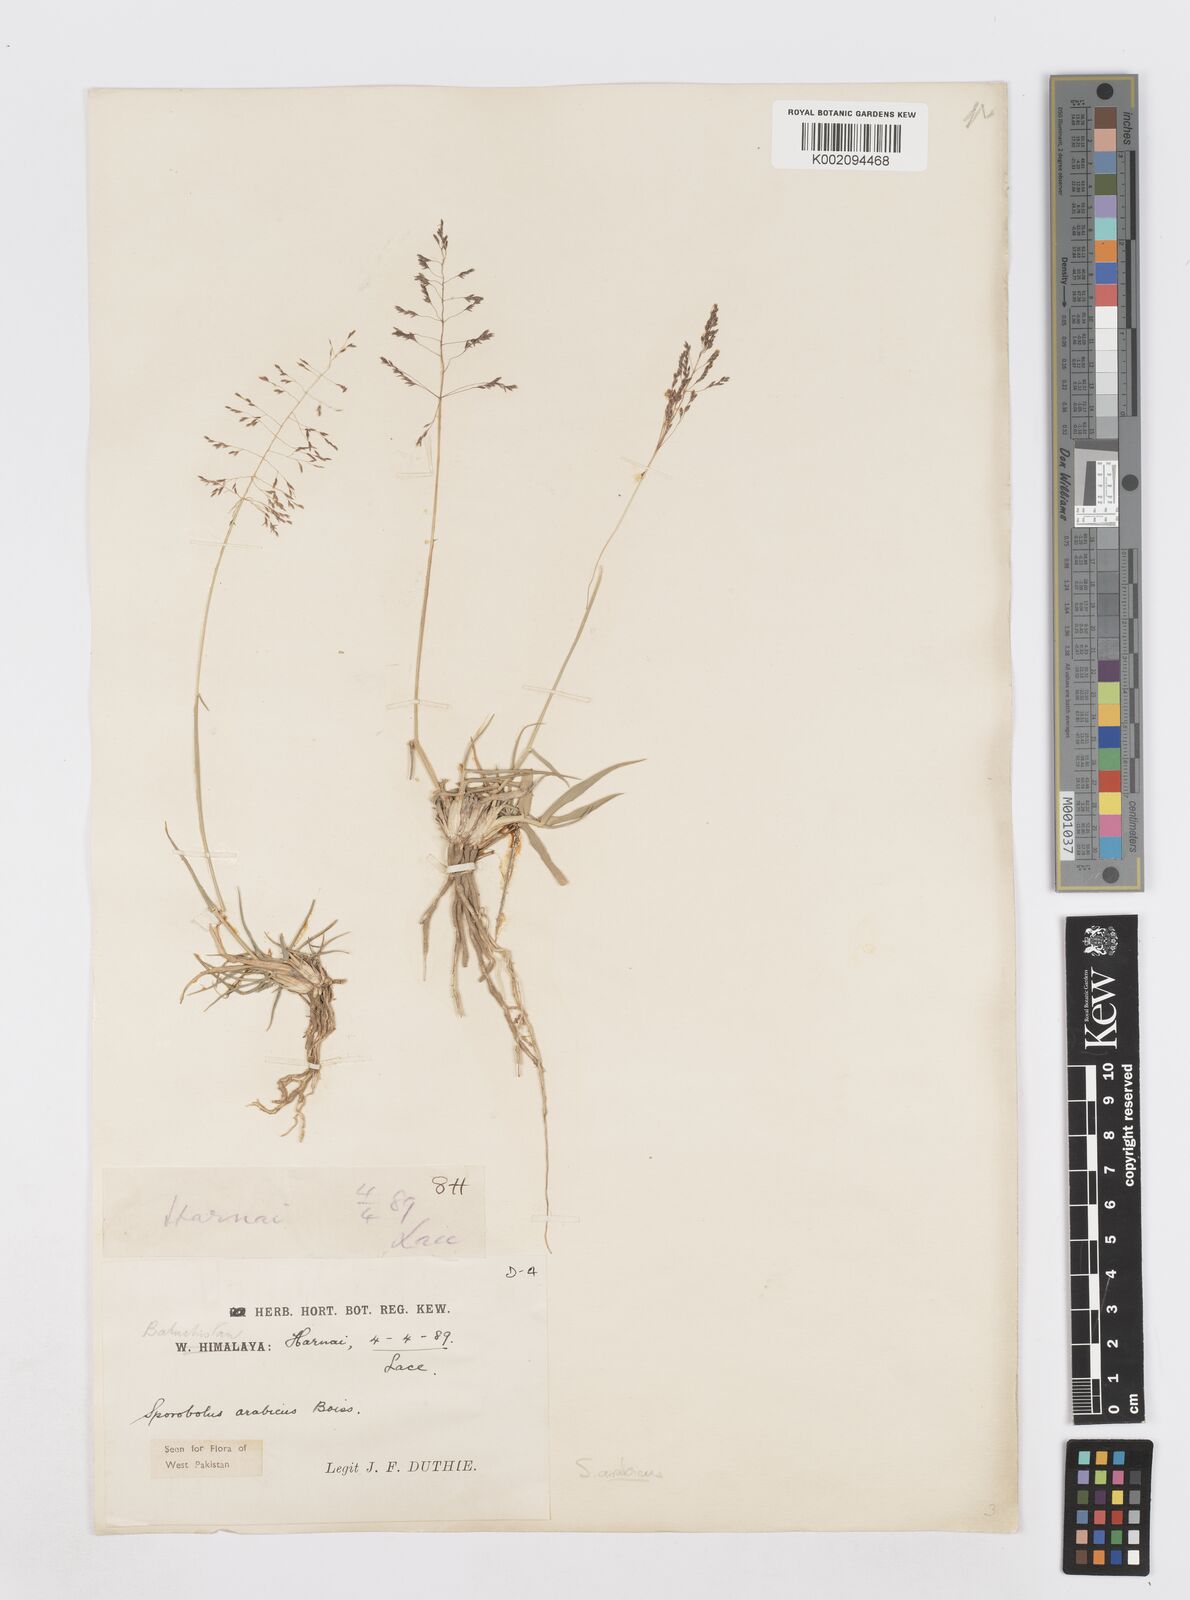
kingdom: Plantae
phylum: Tracheophyta
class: Liliopsida
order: Poales
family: Poaceae
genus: Sporobolus
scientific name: Sporobolus ioclados
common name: Pan dropseed
